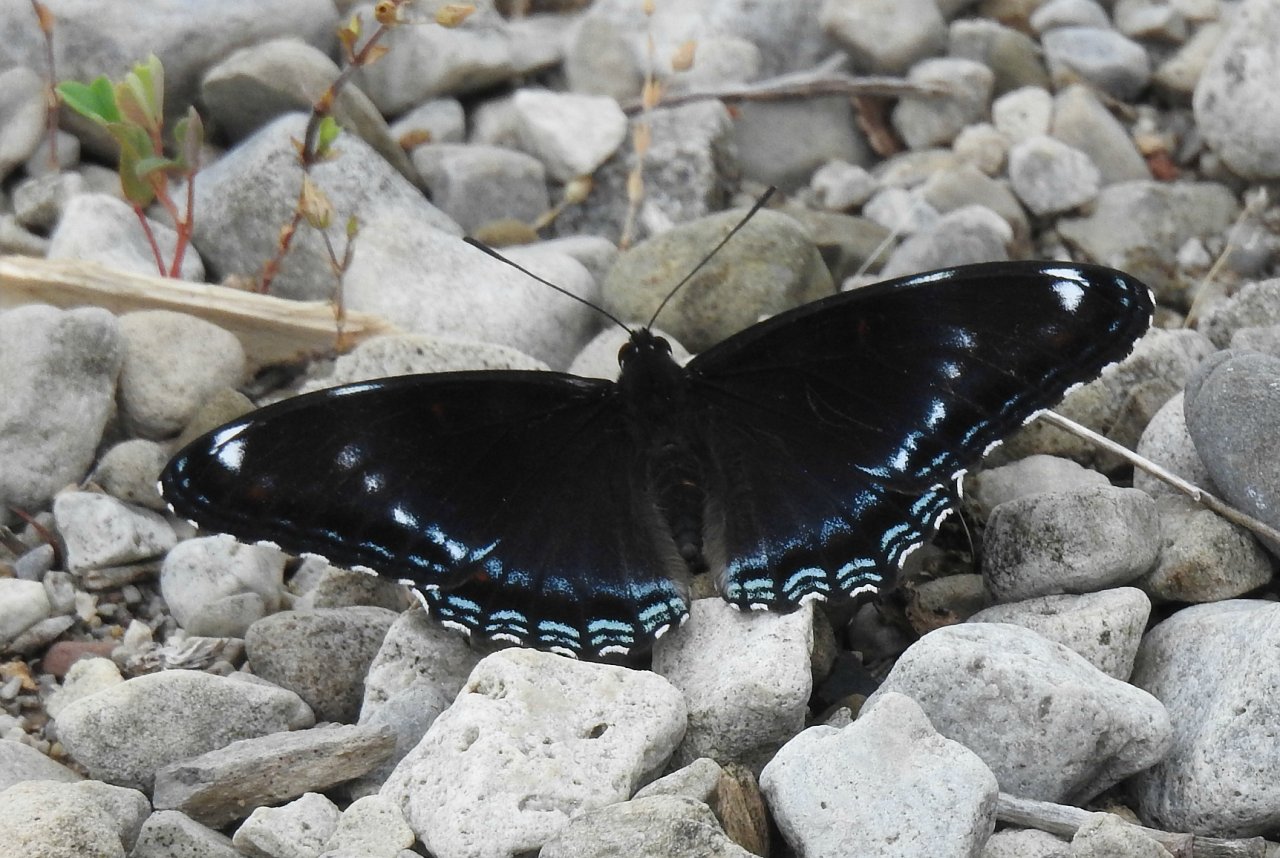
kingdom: Animalia
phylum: Arthropoda
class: Insecta
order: Lepidoptera
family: Nymphalidae
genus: Limenitis
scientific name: Limenitis
